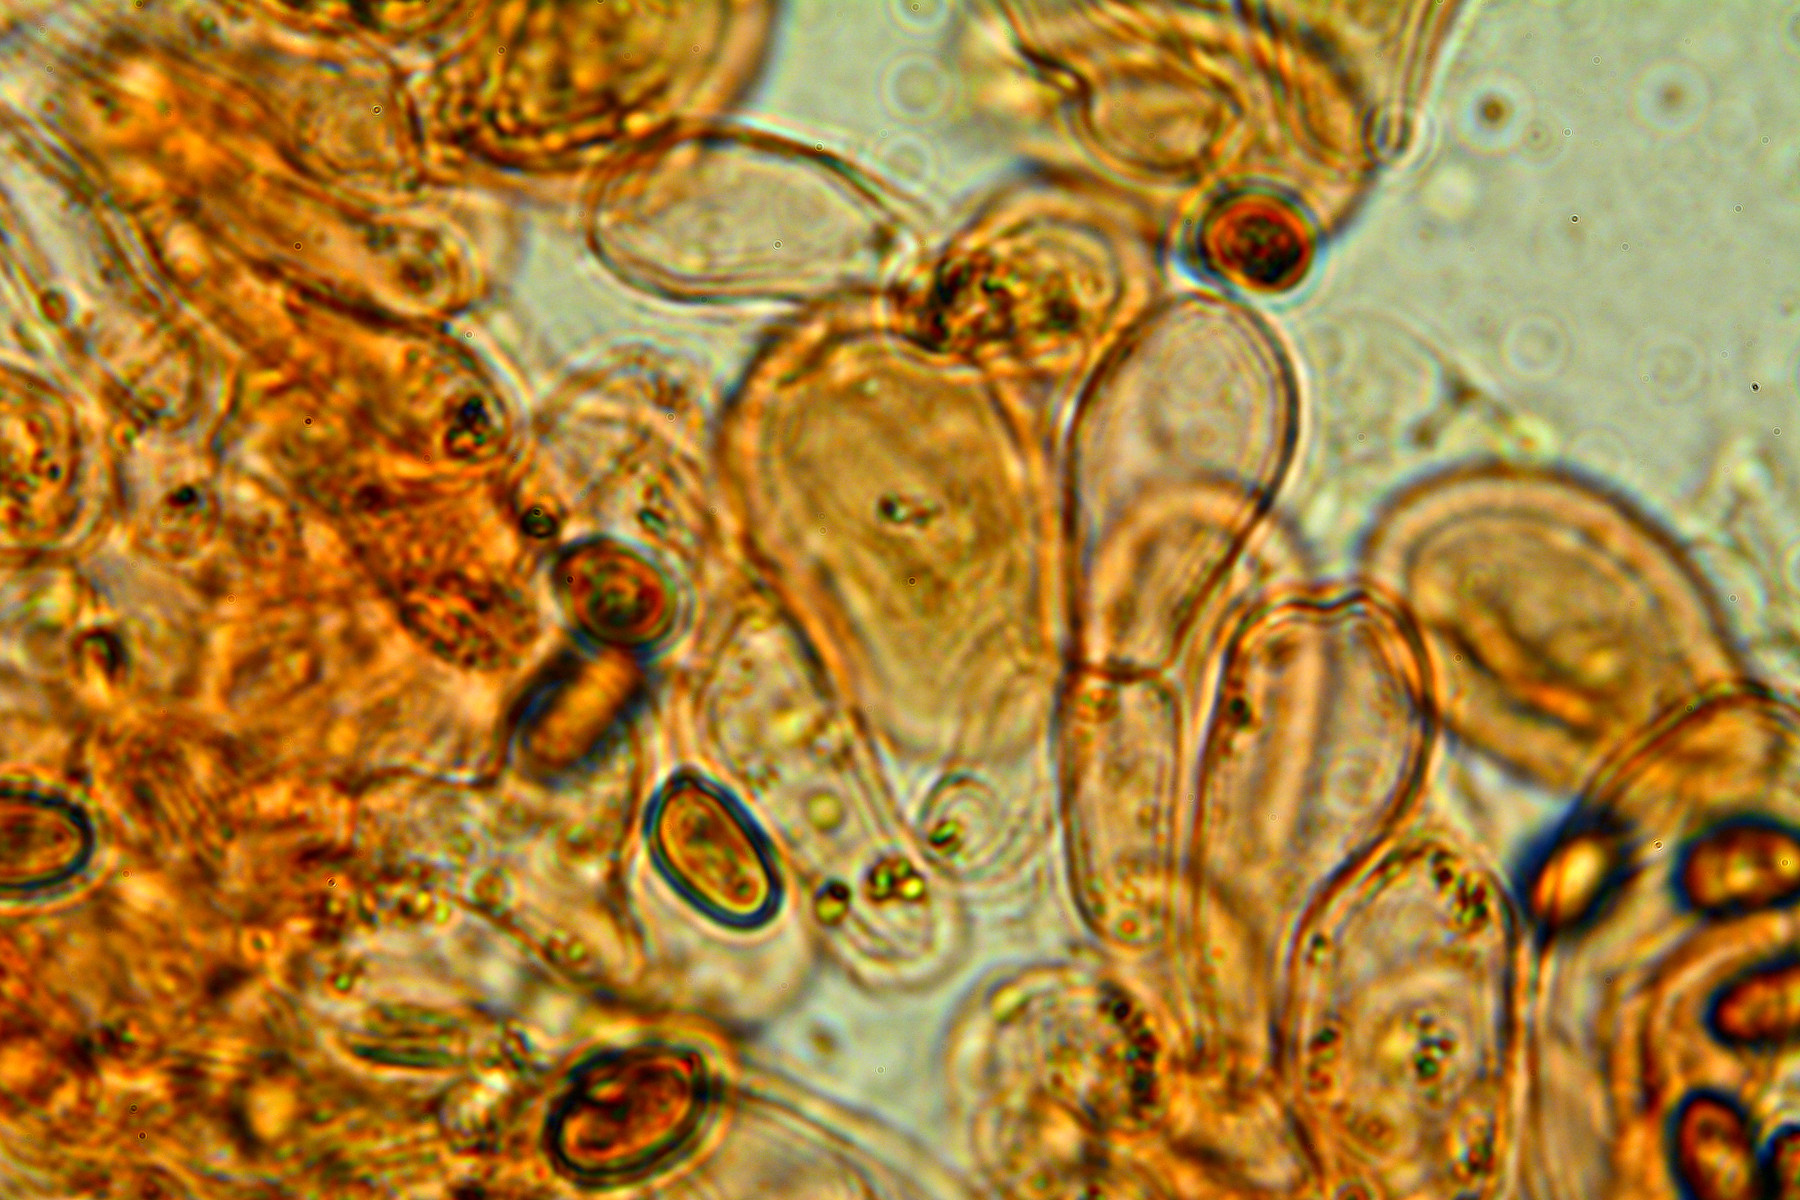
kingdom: Fungi
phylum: Basidiomycota
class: Agaricomycetes
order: Agaricales
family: Agaricaceae
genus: Agaricus
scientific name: Agaricus sylvaticus
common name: lille blod-champignon
